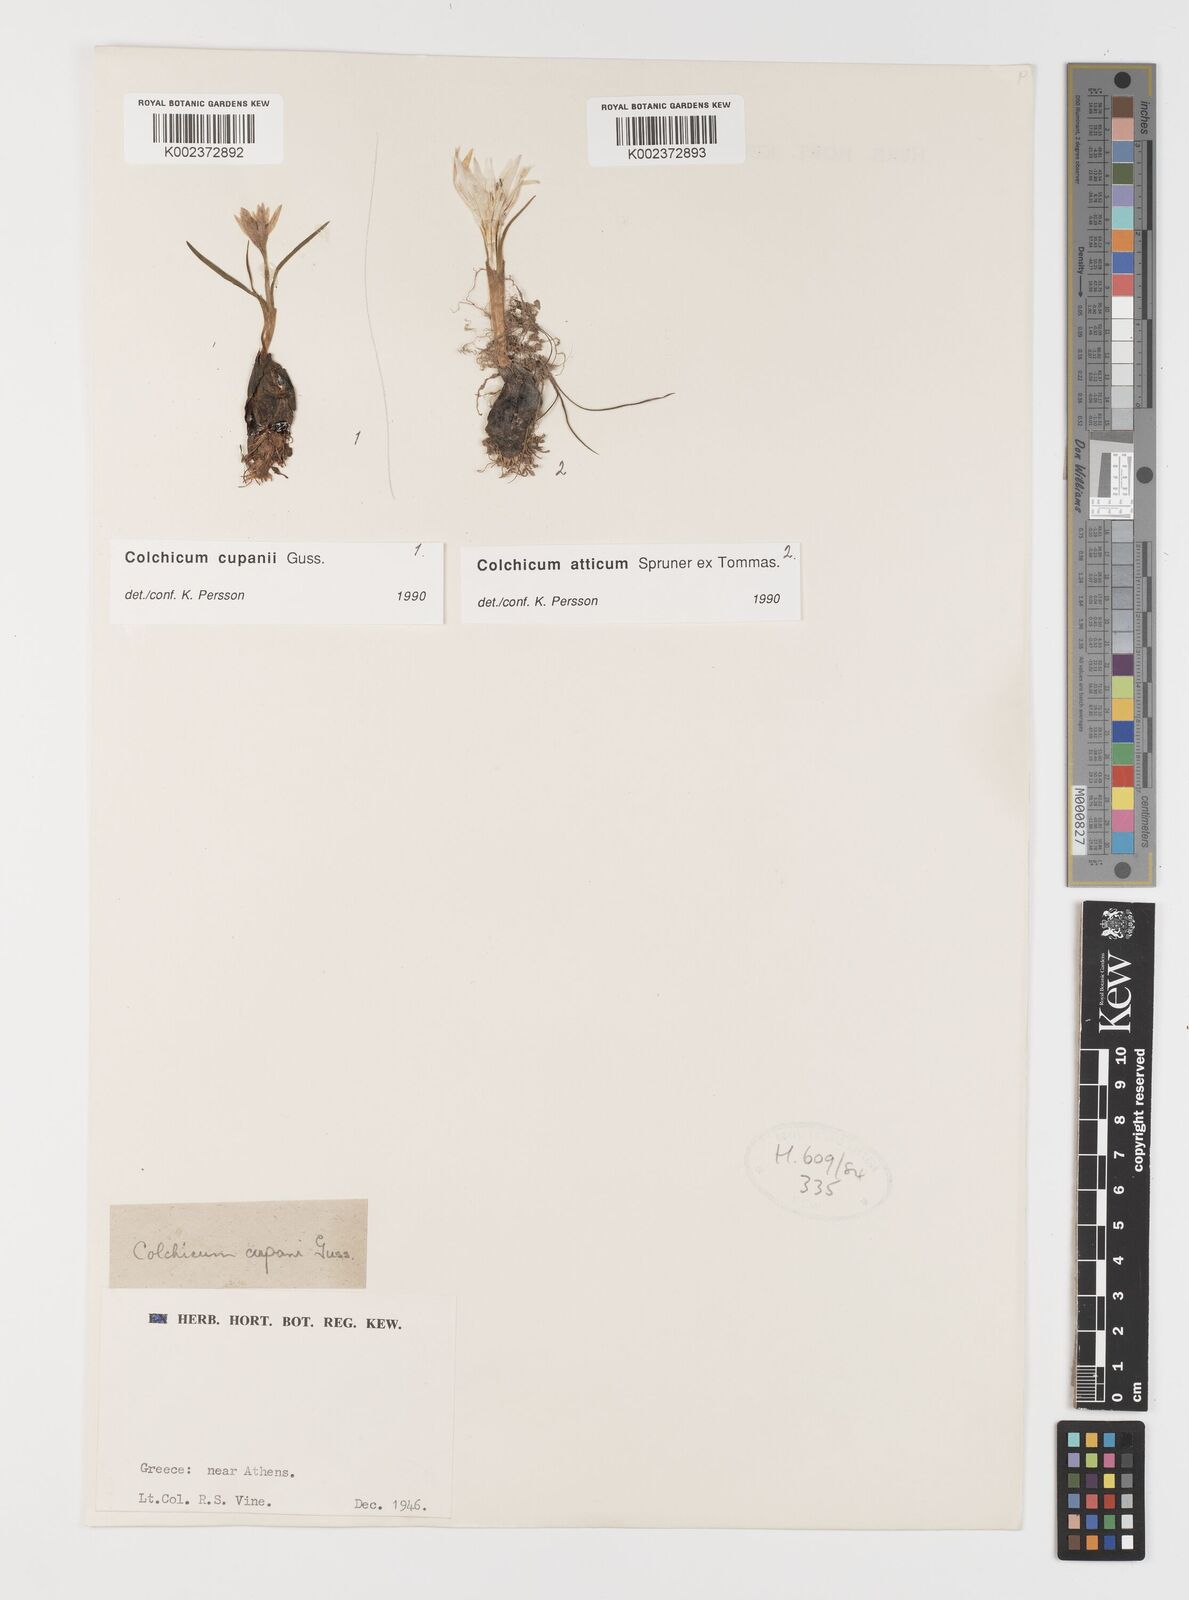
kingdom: Plantae
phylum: Tracheophyta
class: Liliopsida
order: Liliales
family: Colchicaceae
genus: Colchicum
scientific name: Colchicum cupanii
